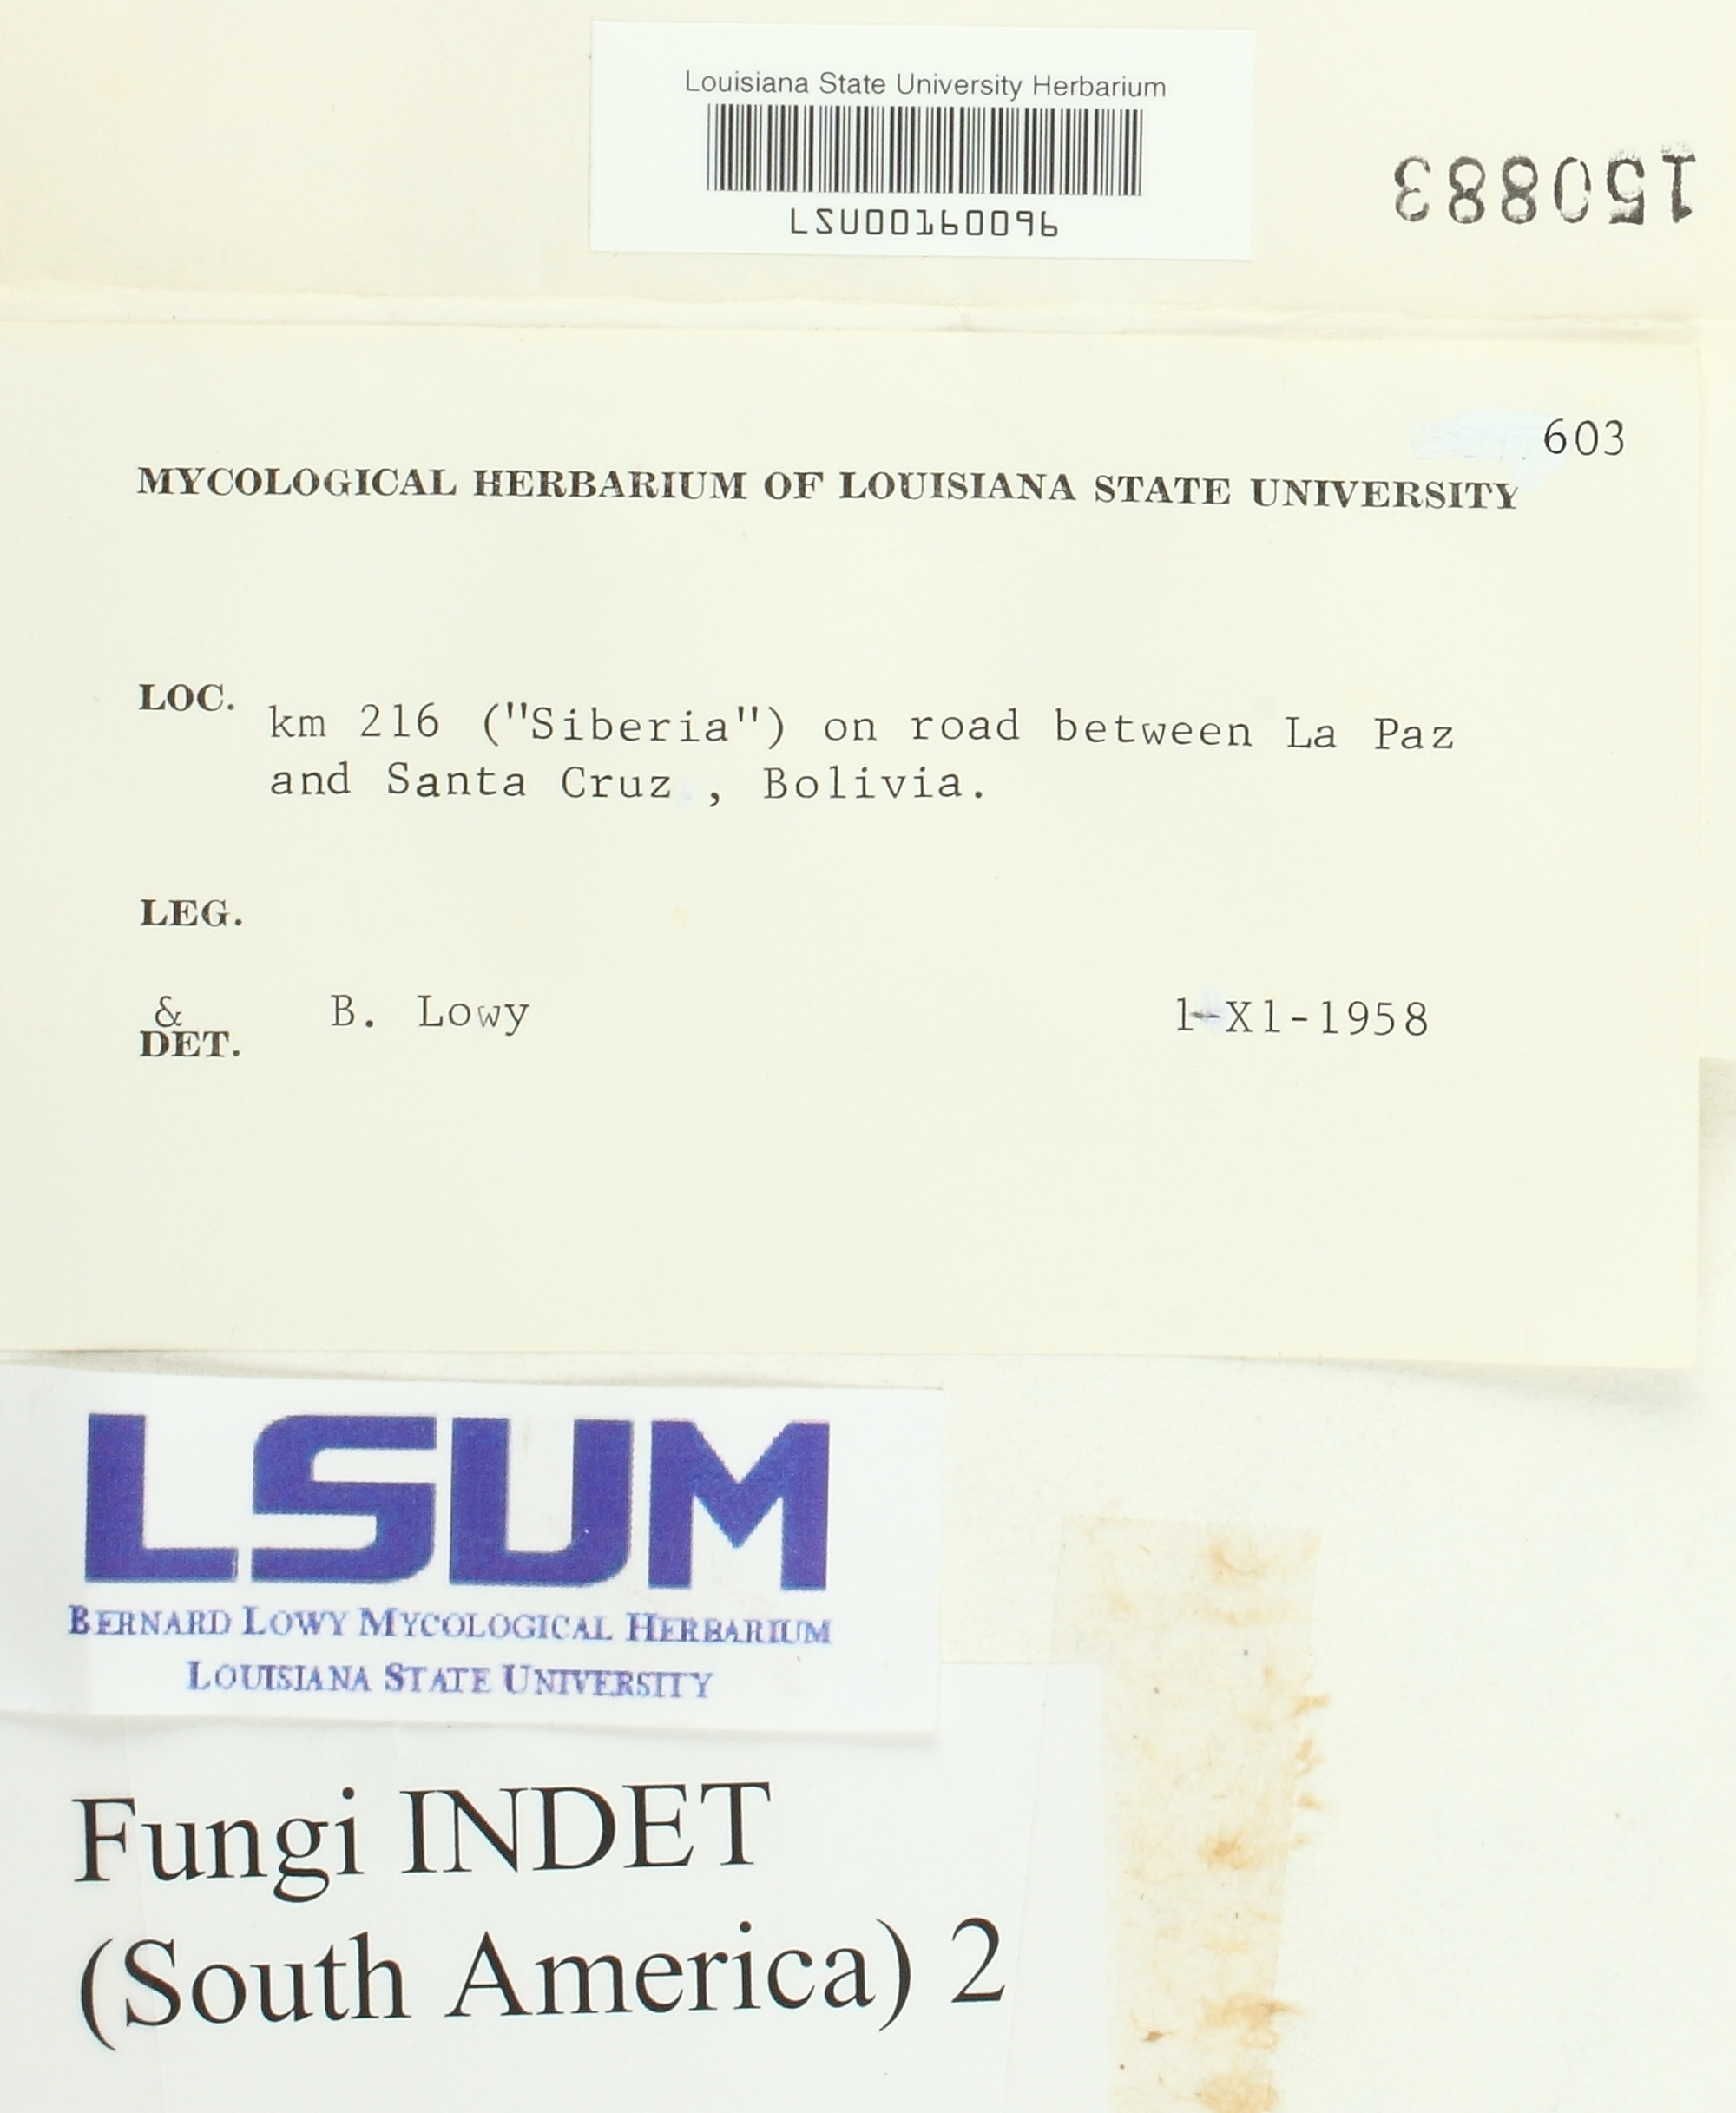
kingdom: Fungi
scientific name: Fungi
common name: Fungi
